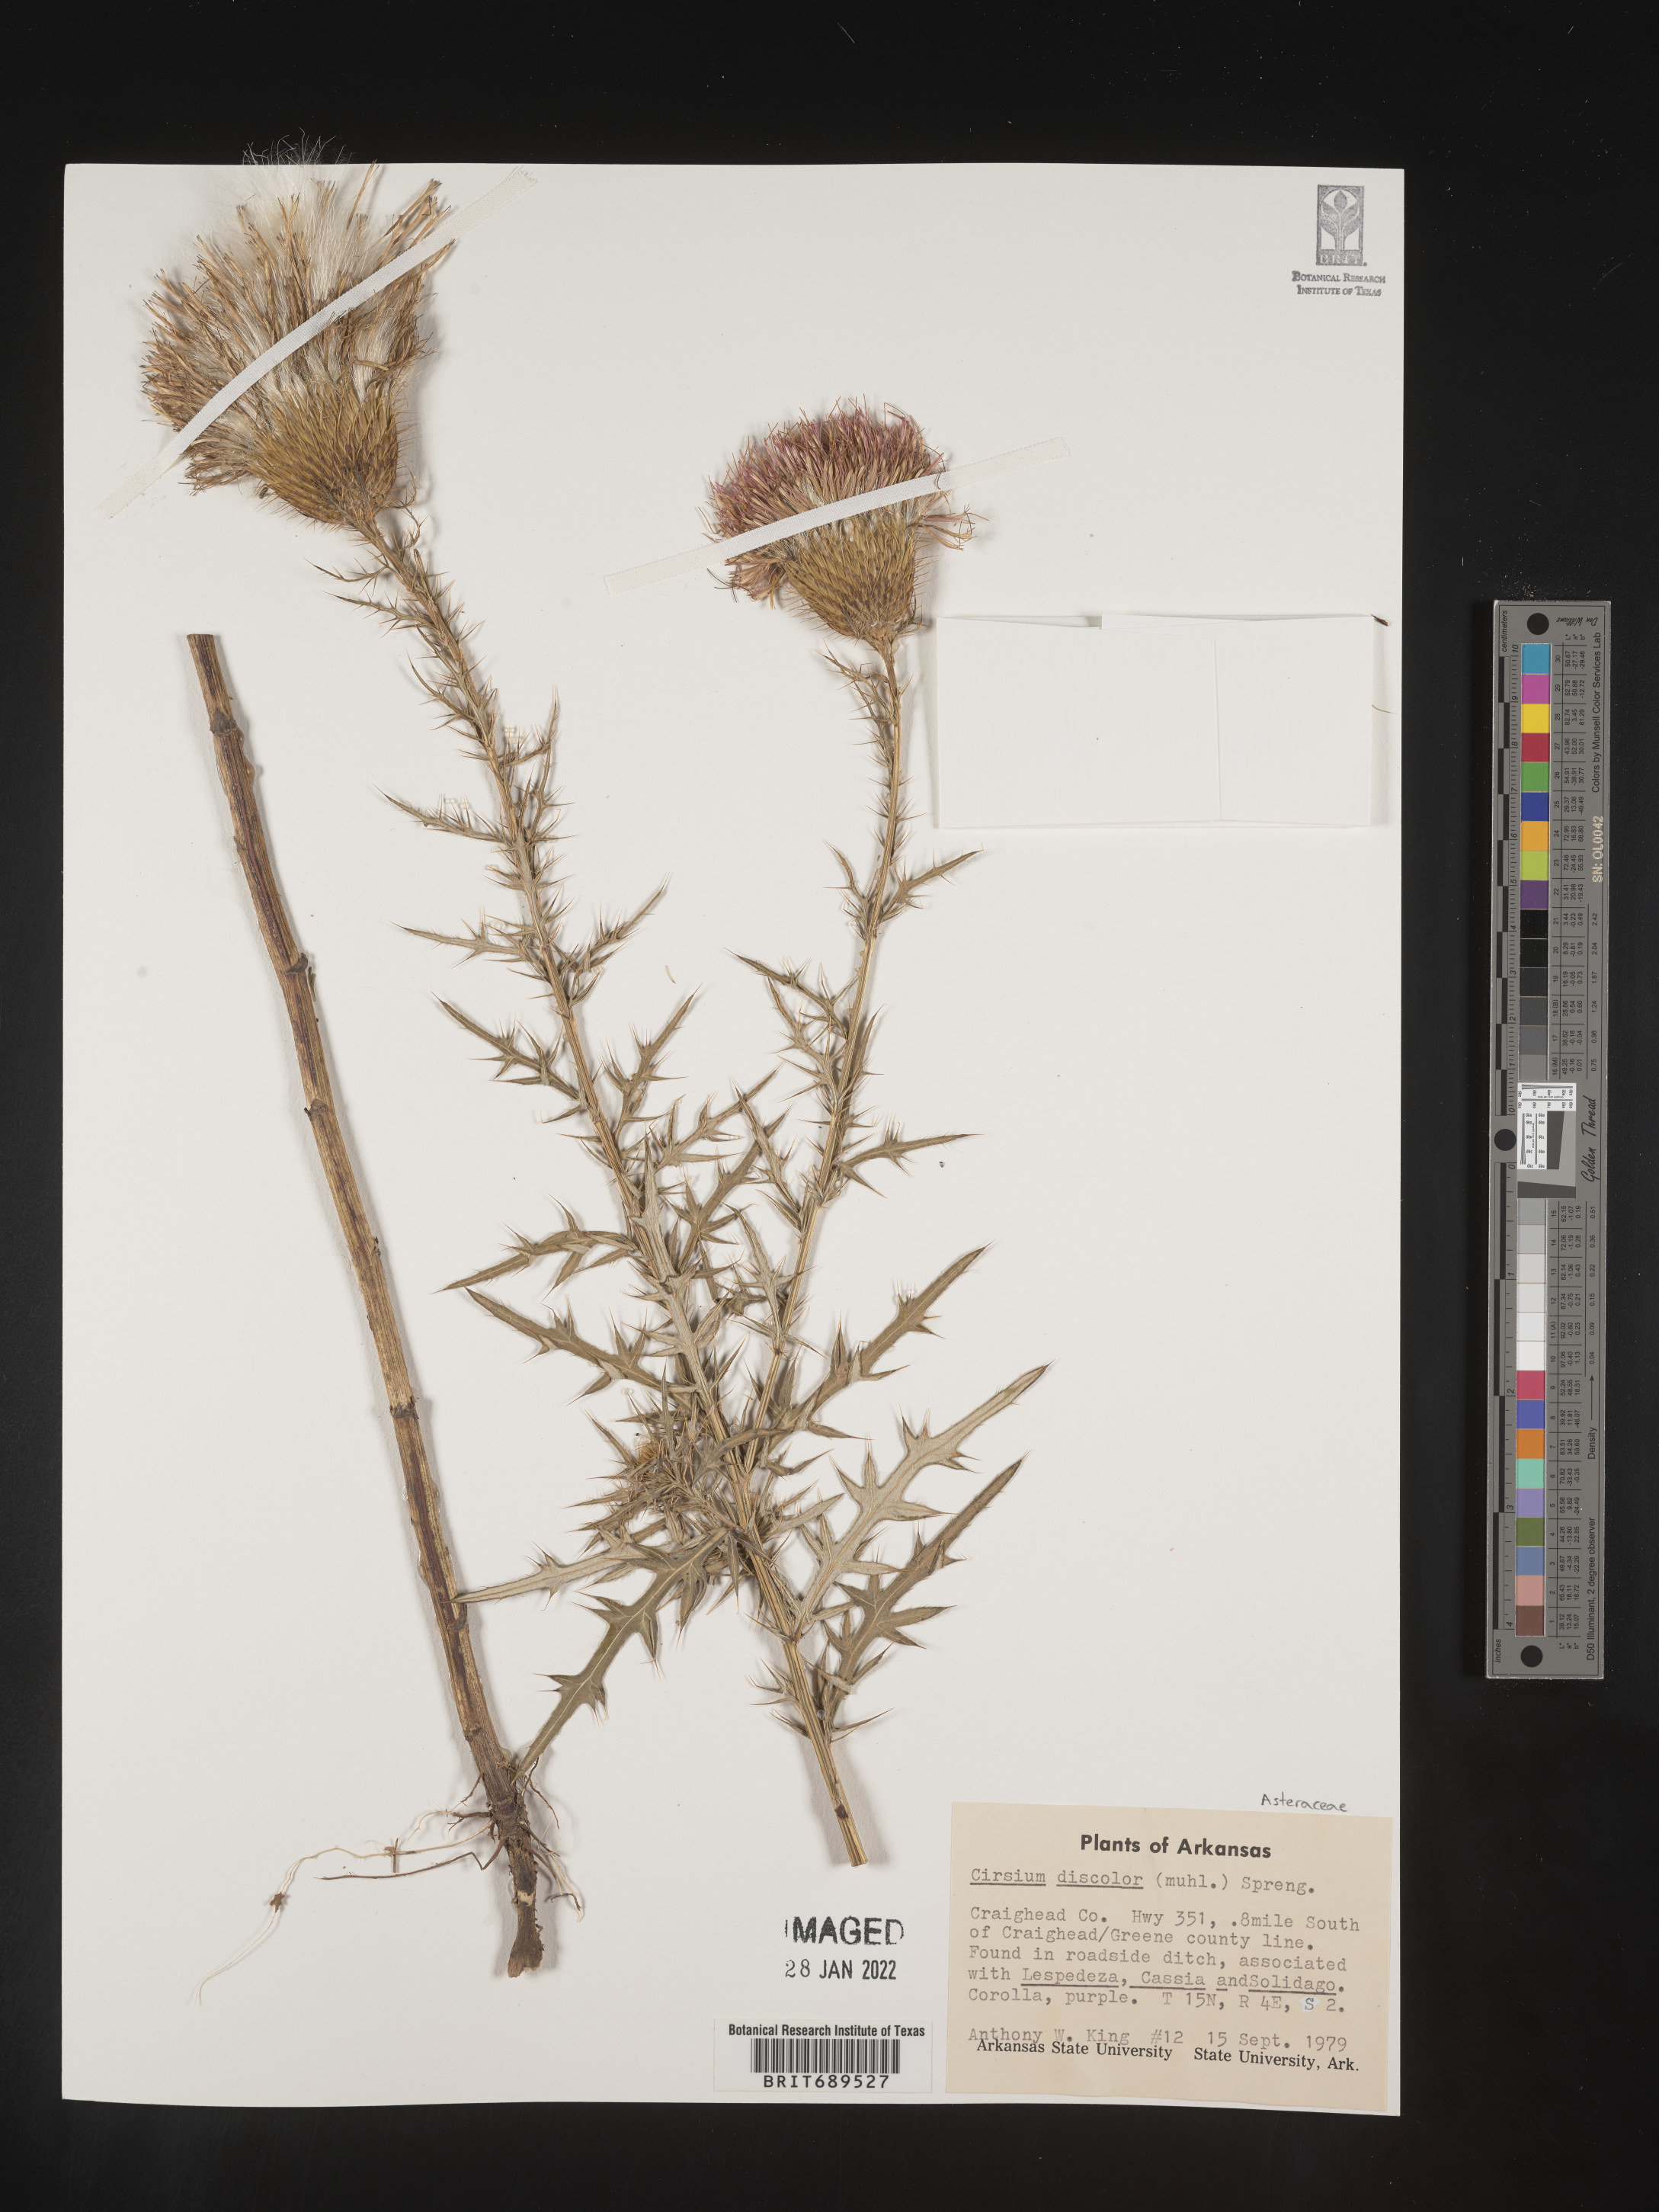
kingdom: Plantae
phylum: Tracheophyta
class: Magnoliopsida
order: Asterales
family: Asteraceae
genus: Cirsium
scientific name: Cirsium discolor
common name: Field thistle
